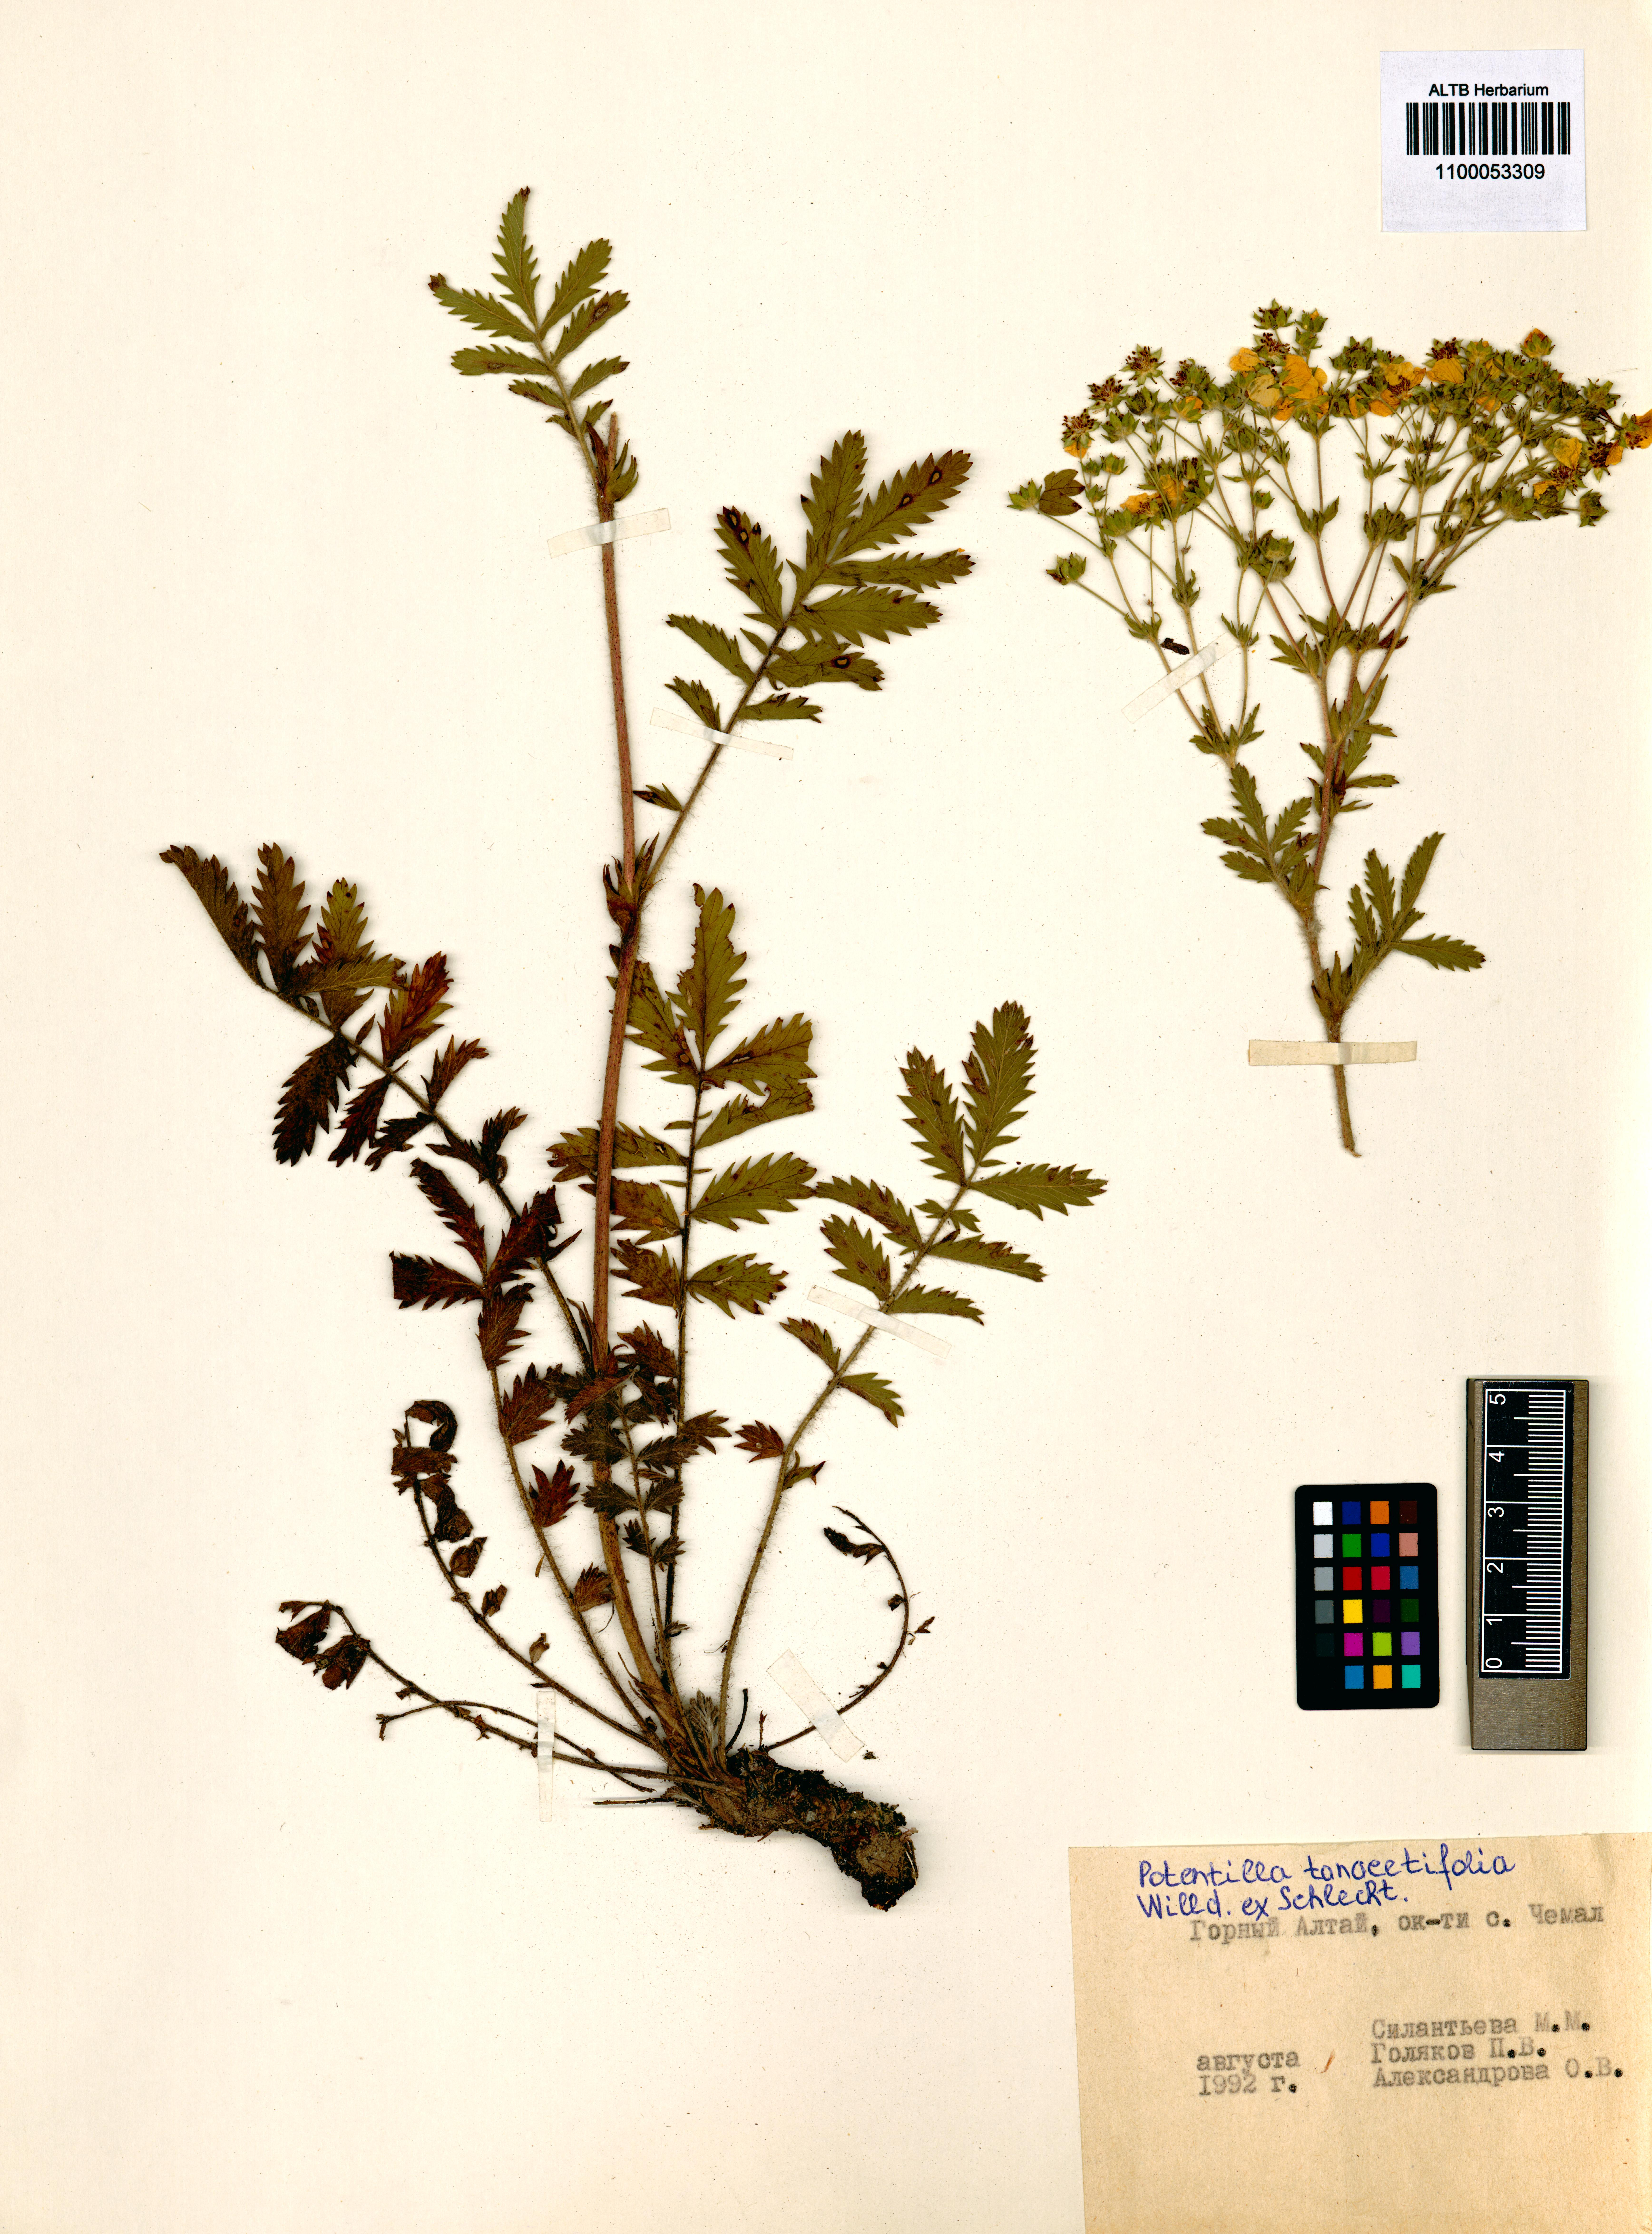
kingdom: Plantae
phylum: Tracheophyta
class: Magnoliopsida
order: Rosales
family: Rosaceae
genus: Potentilla
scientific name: Potentilla tanacetifolia
